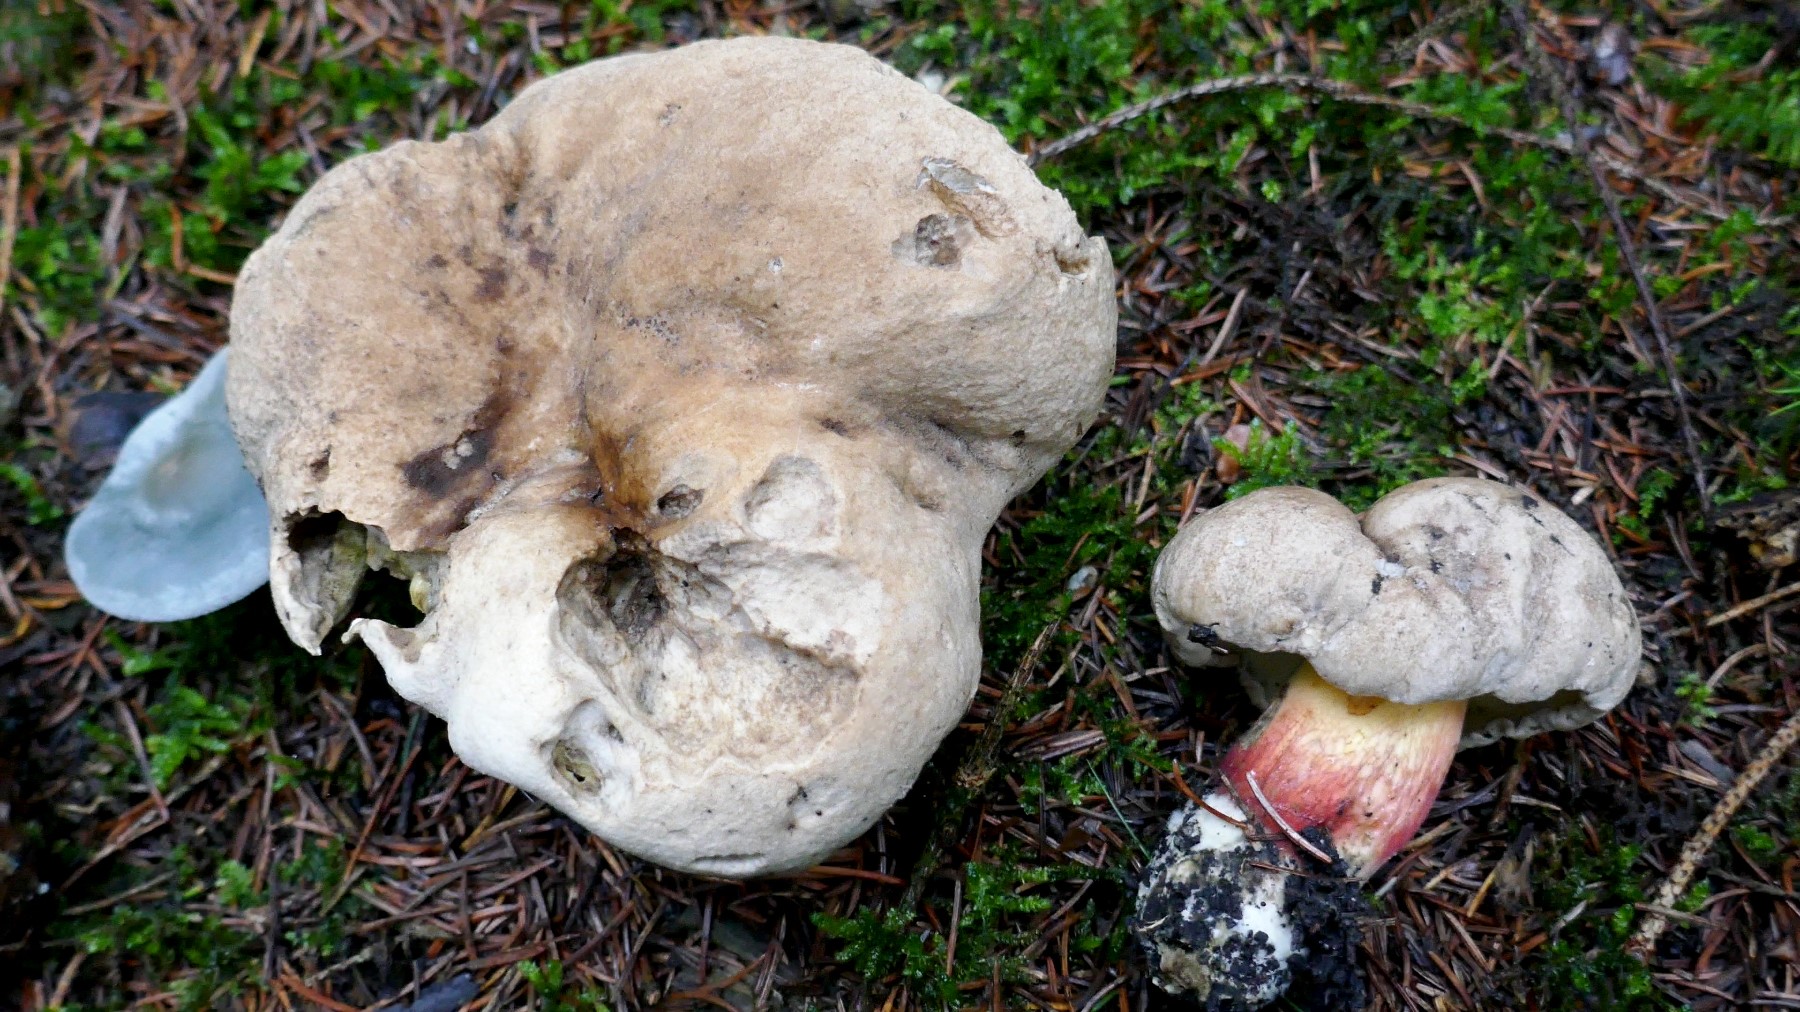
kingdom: Fungi
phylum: Basidiomycota
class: Agaricomycetes
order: Boletales
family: Boletaceae
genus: Caloboletus
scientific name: Caloboletus calopus
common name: skønfodet rørhat
